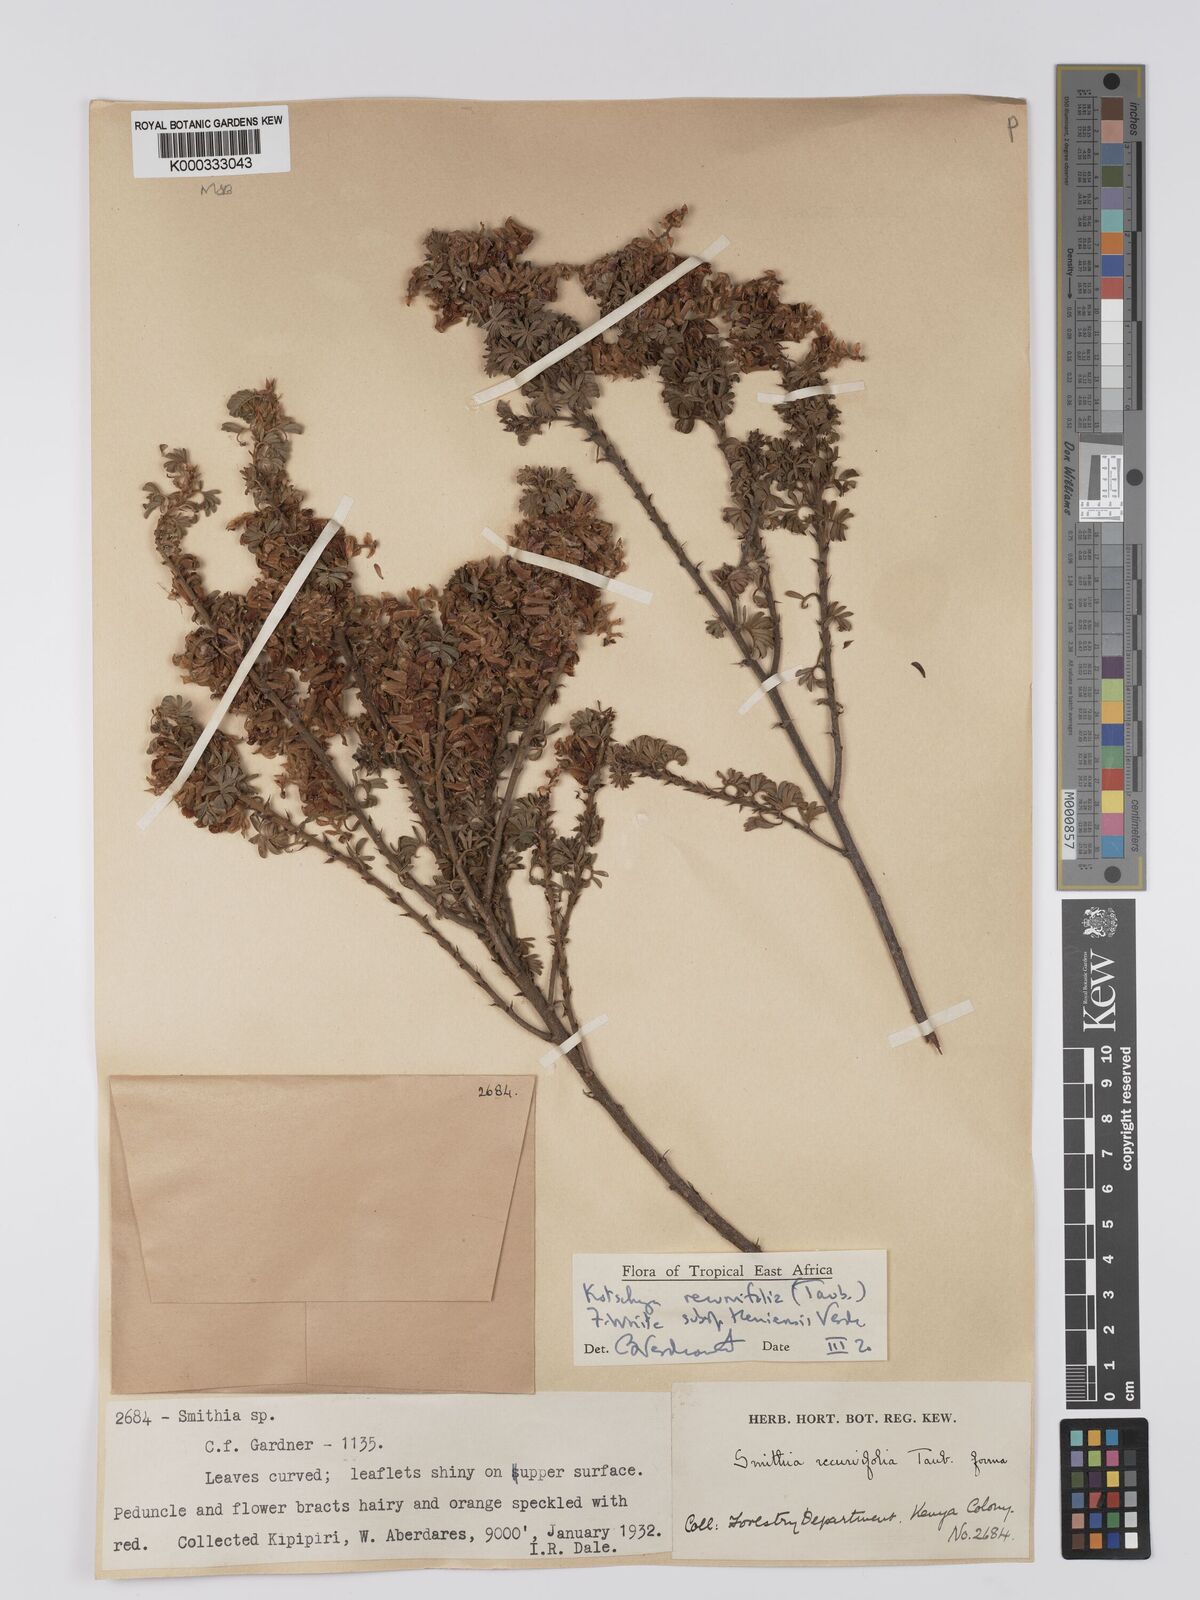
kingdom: Plantae
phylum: Tracheophyta
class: Magnoliopsida
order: Fabales
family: Fabaceae
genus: Kotschya
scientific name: Kotschya recurvifolia
